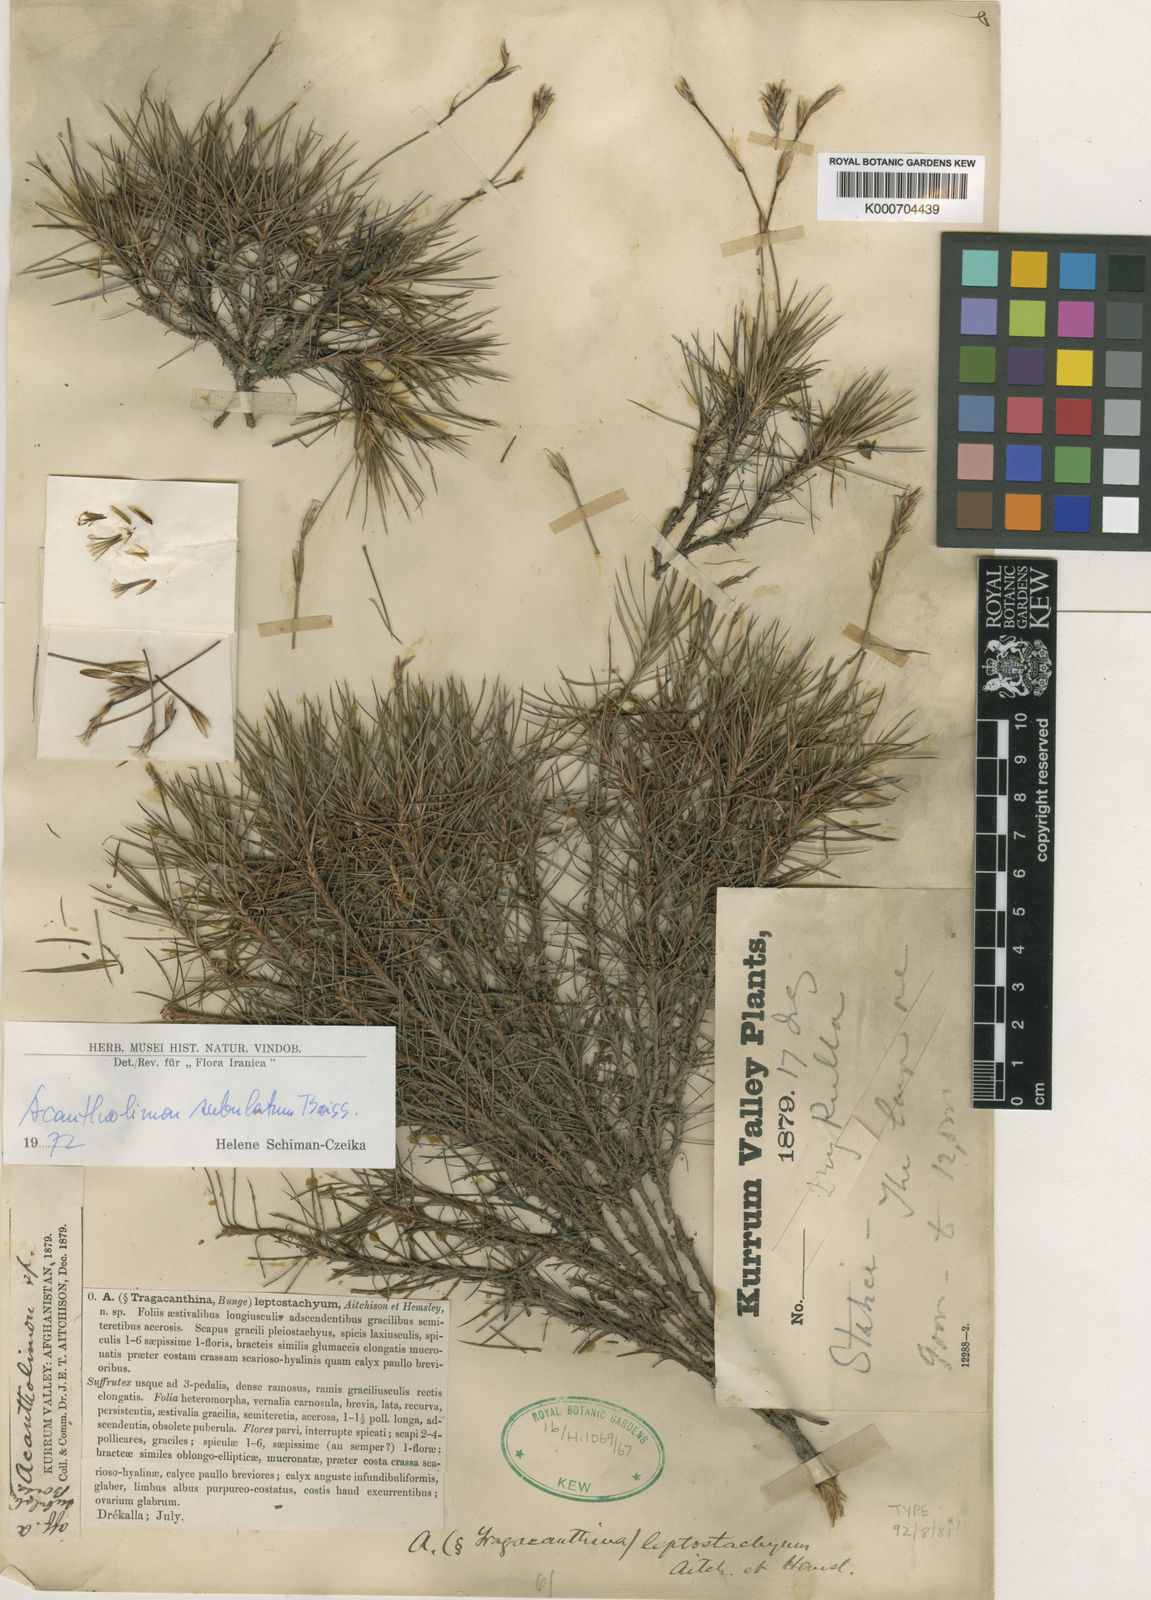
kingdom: Plantae
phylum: Tracheophyta
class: Magnoliopsida
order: Caryophyllales
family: Plumbaginaceae
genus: Acantholimon
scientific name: Acantholimon subulatum
